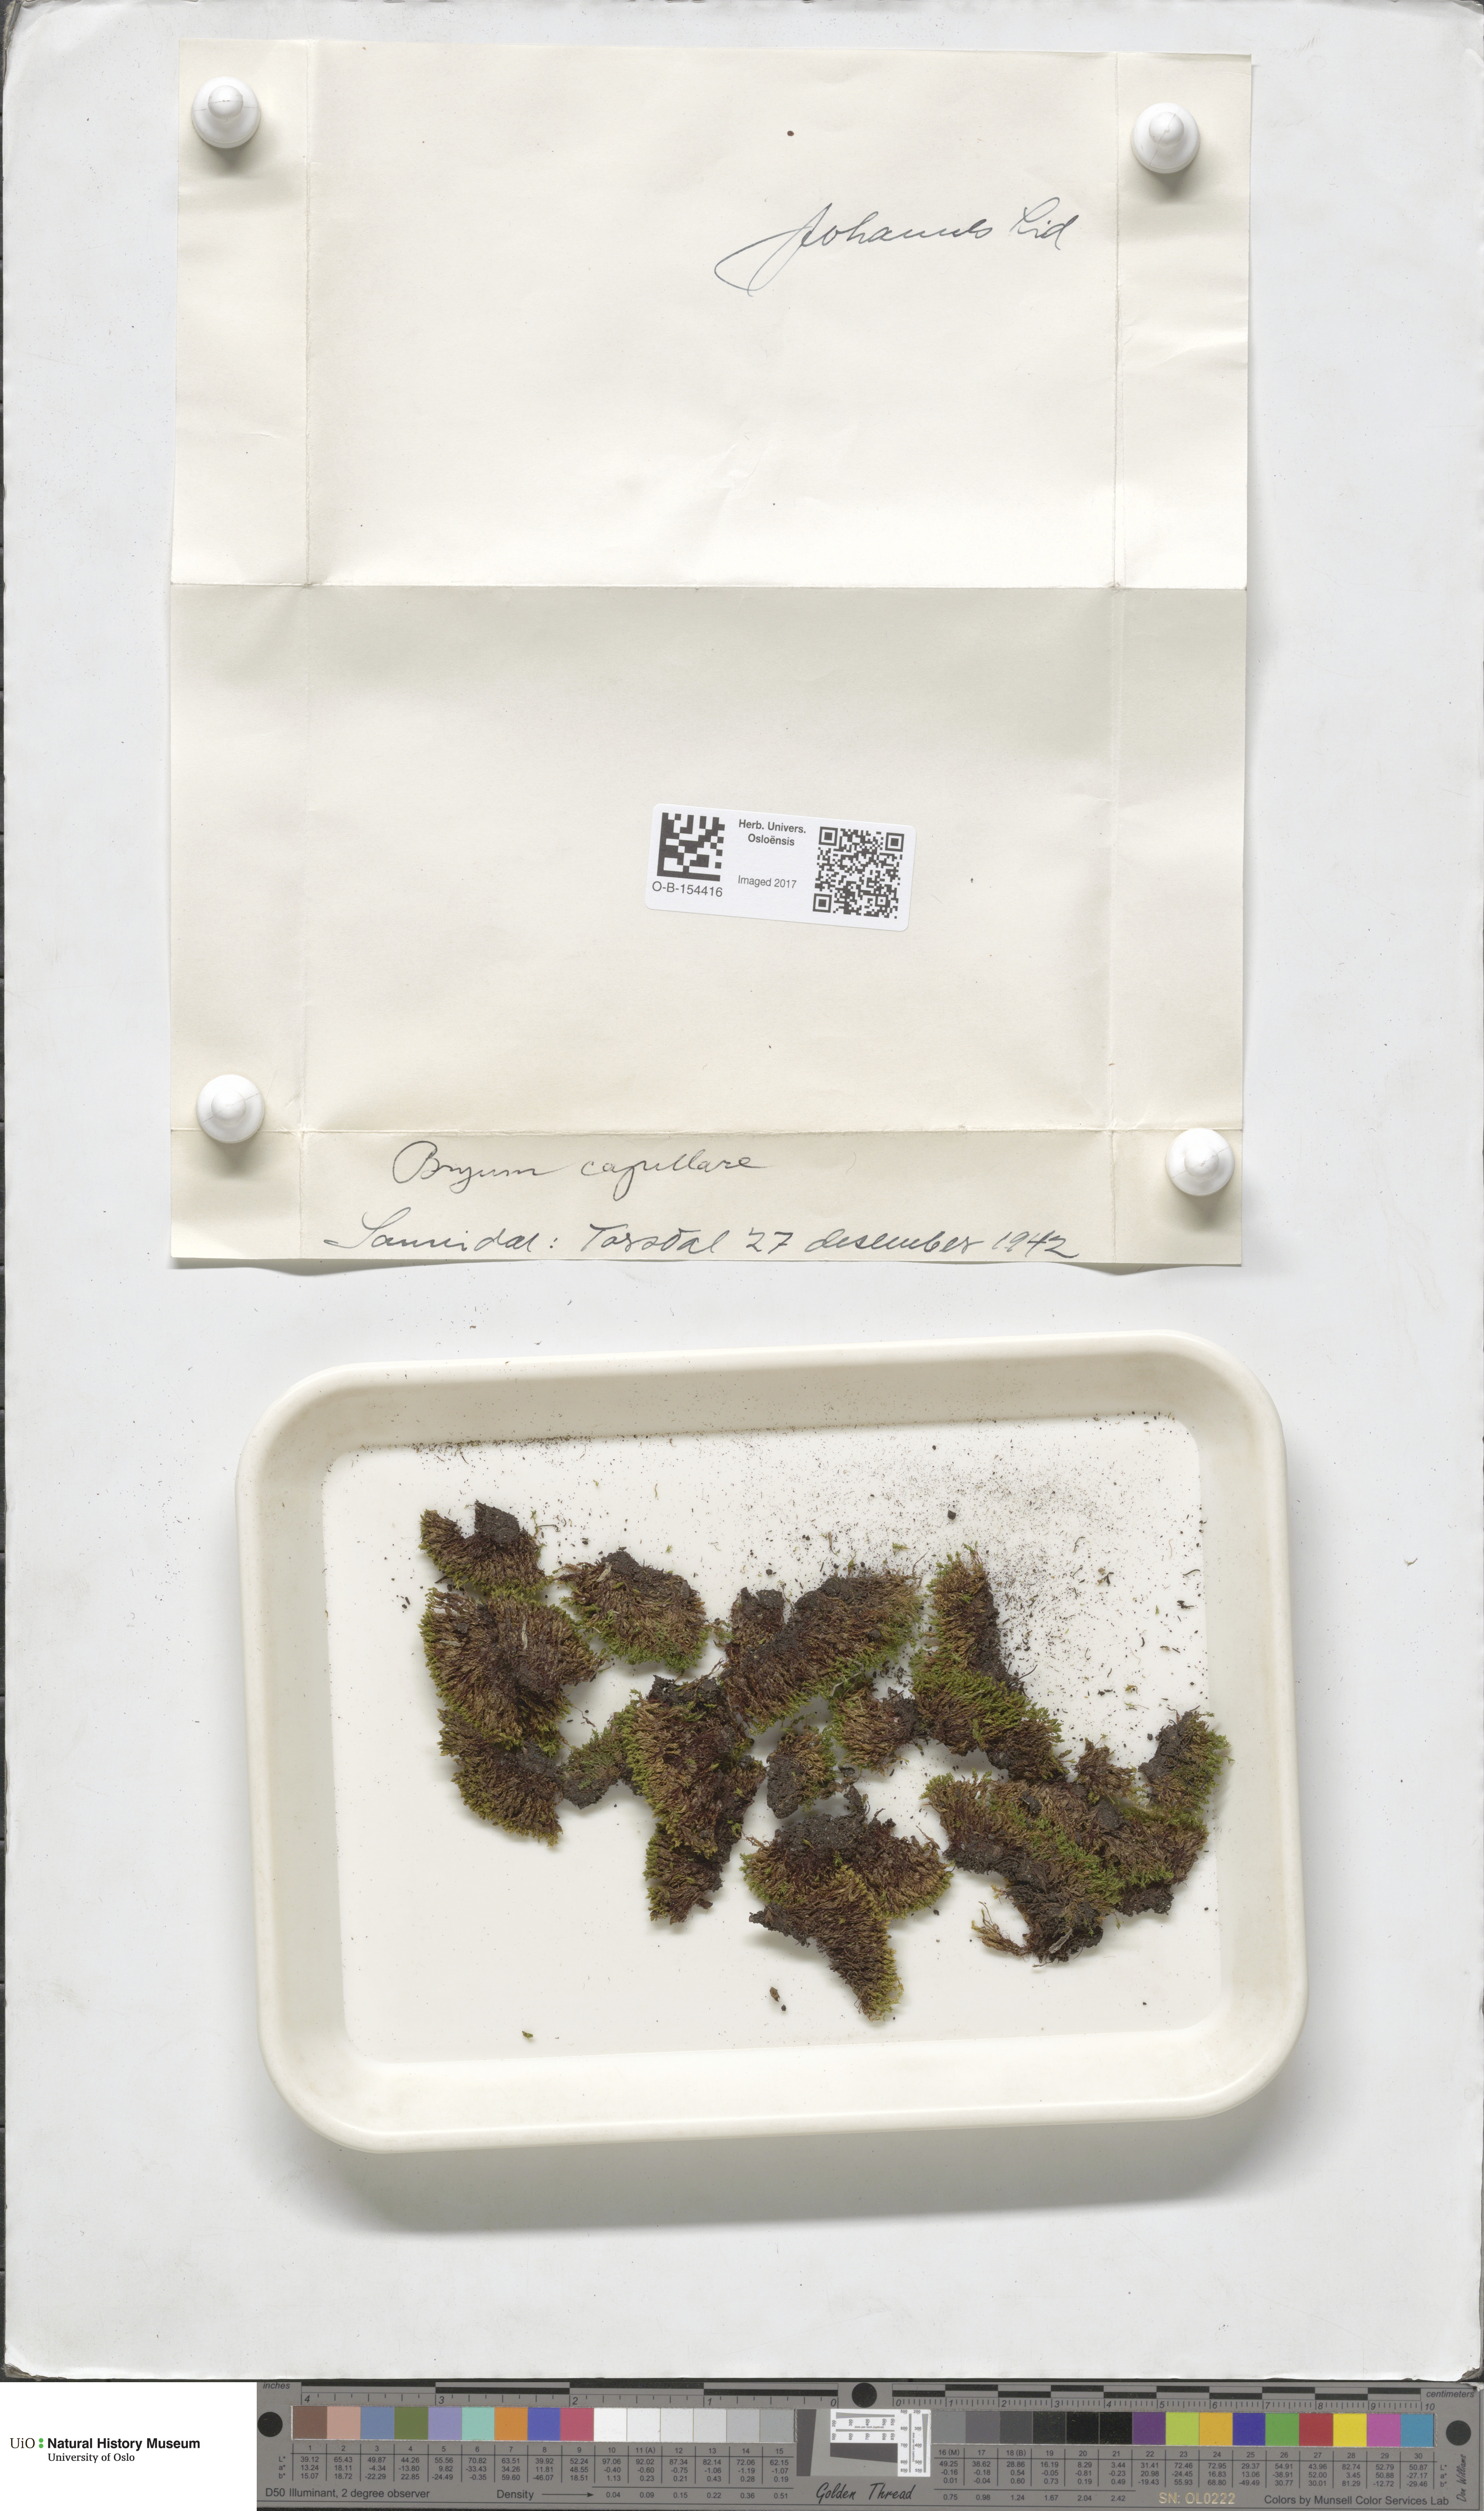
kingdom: Plantae
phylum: Bryophyta
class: Bryopsida
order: Bryales
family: Bryaceae
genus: Rosulabryum
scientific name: Rosulabryum capillare
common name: Capillary thread-moss
